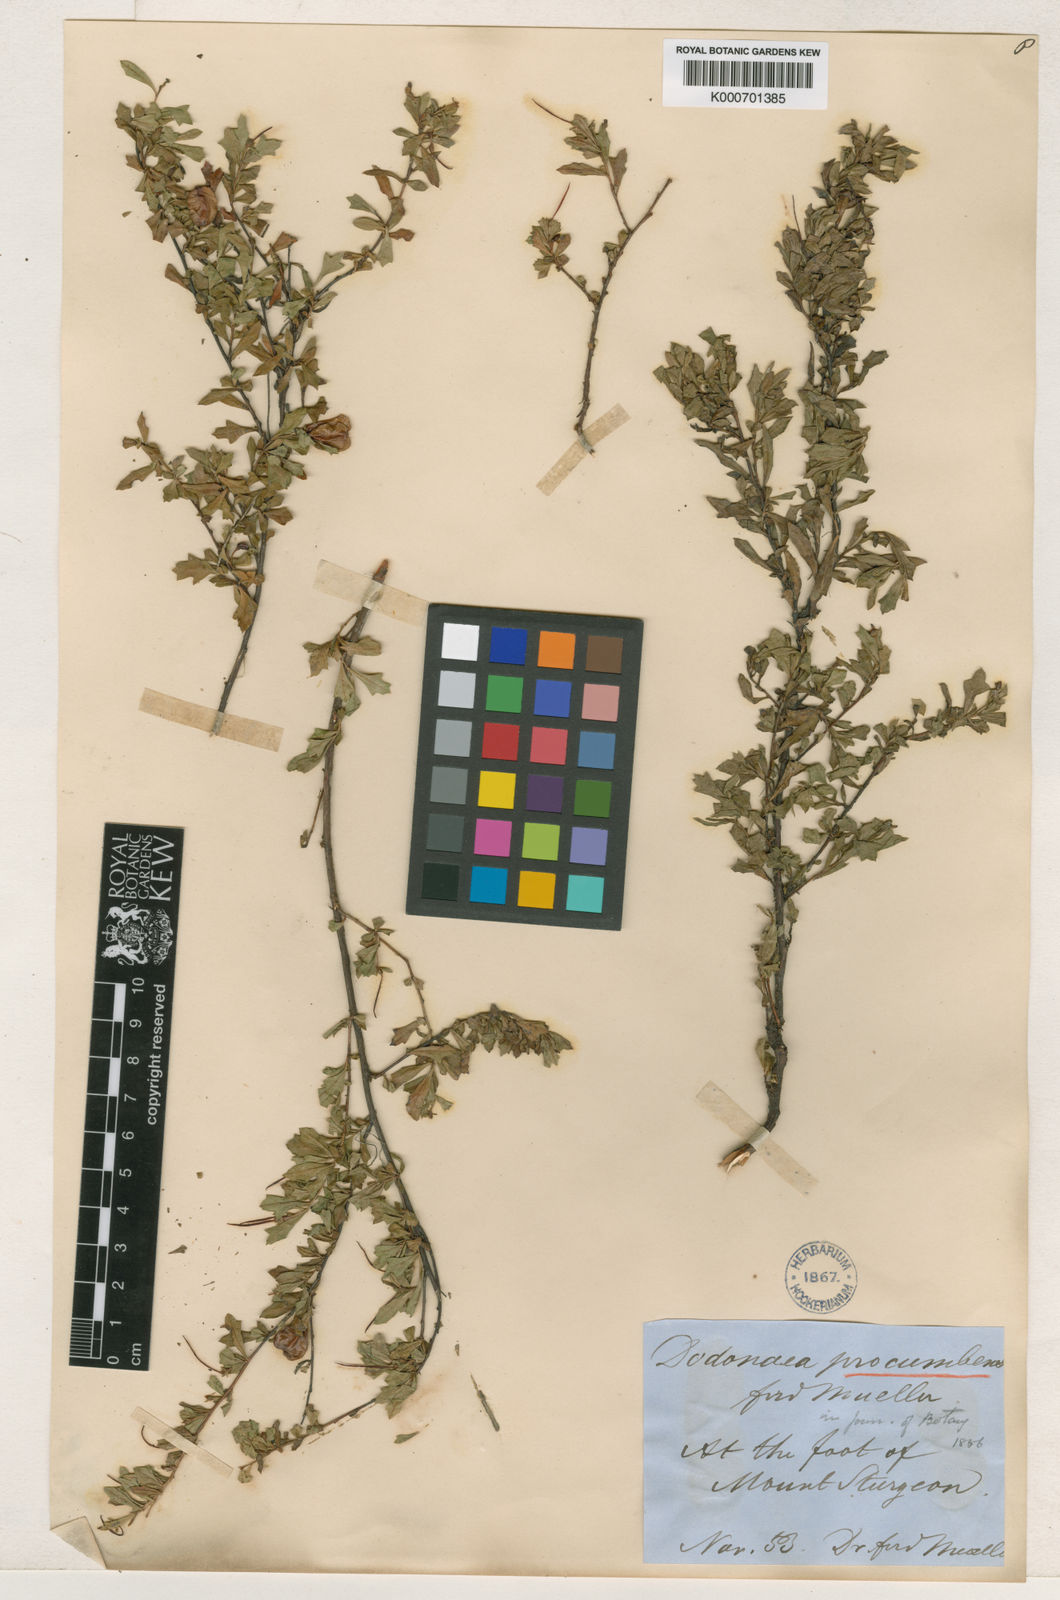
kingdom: Plantae
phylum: Tracheophyta
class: Magnoliopsida
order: Sapindales
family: Sapindaceae
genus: Dodonaea
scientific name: Dodonaea procumbens
